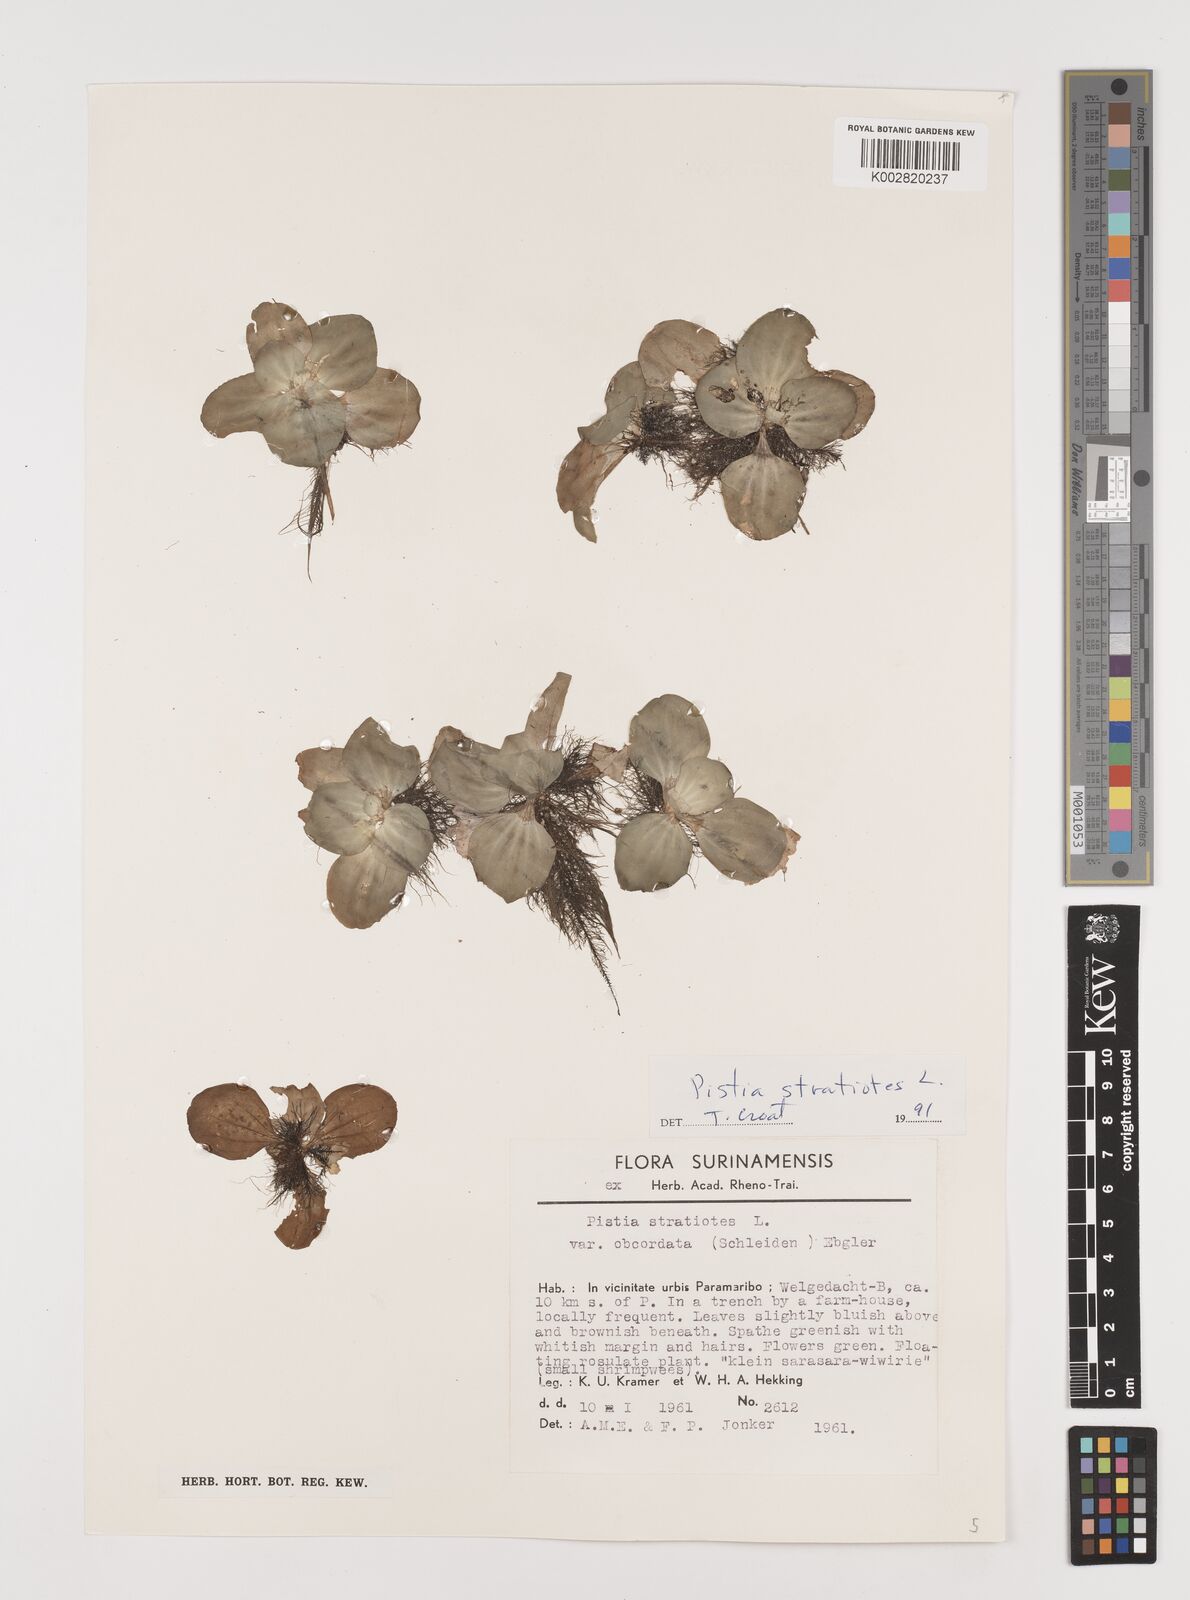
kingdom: Plantae
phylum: Tracheophyta
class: Liliopsida
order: Alismatales
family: Araceae
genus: Pistia
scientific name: Pistia stratiotes
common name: Water lettuce
